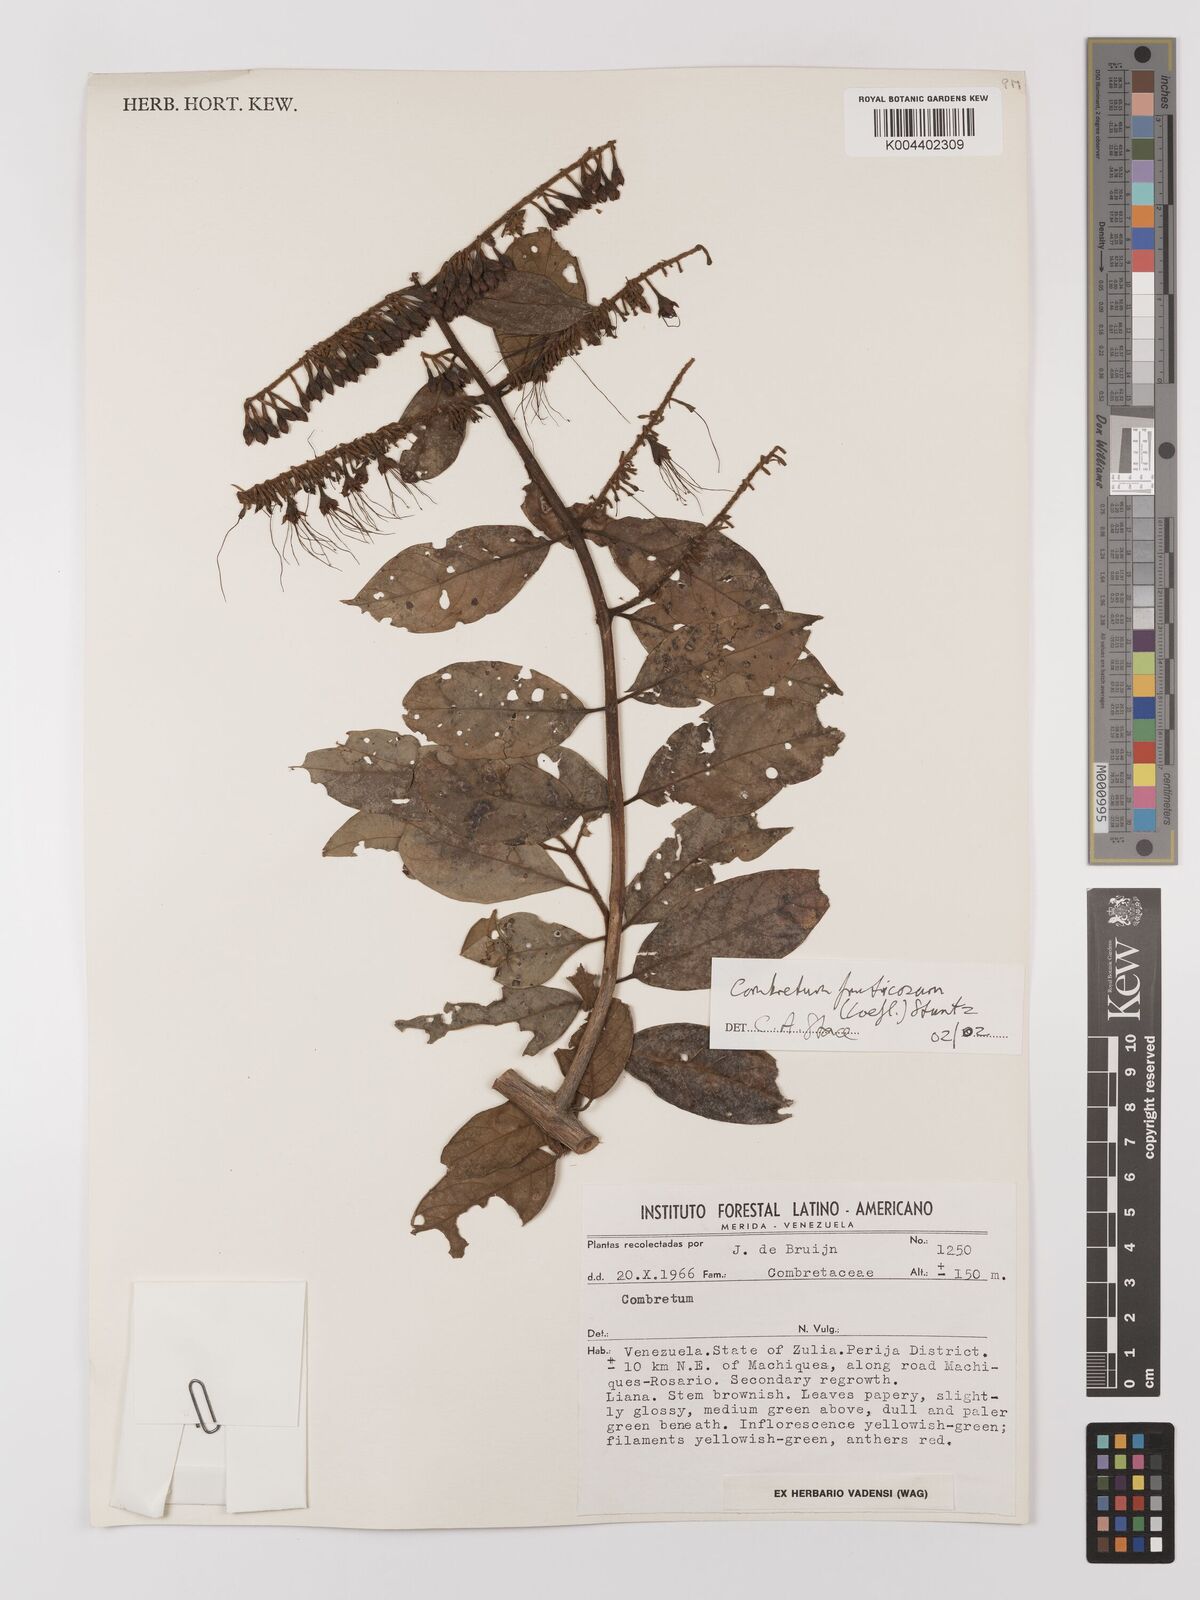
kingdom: Plantae
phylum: Tracheophyta
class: Magnoliopsida
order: Myrtales
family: Combretaceae
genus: Combretum
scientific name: Combretum fruticosum
